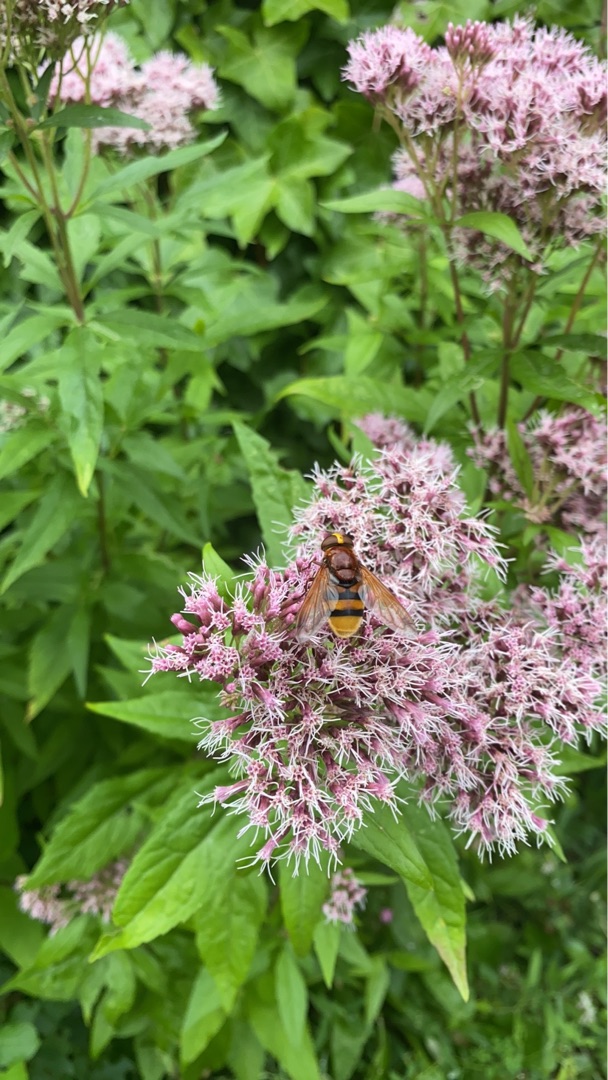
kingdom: Animalia
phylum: Arthropoda
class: Insecta
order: Diptera
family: Syrphidae
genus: Volucella
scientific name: Volucella zonaria
